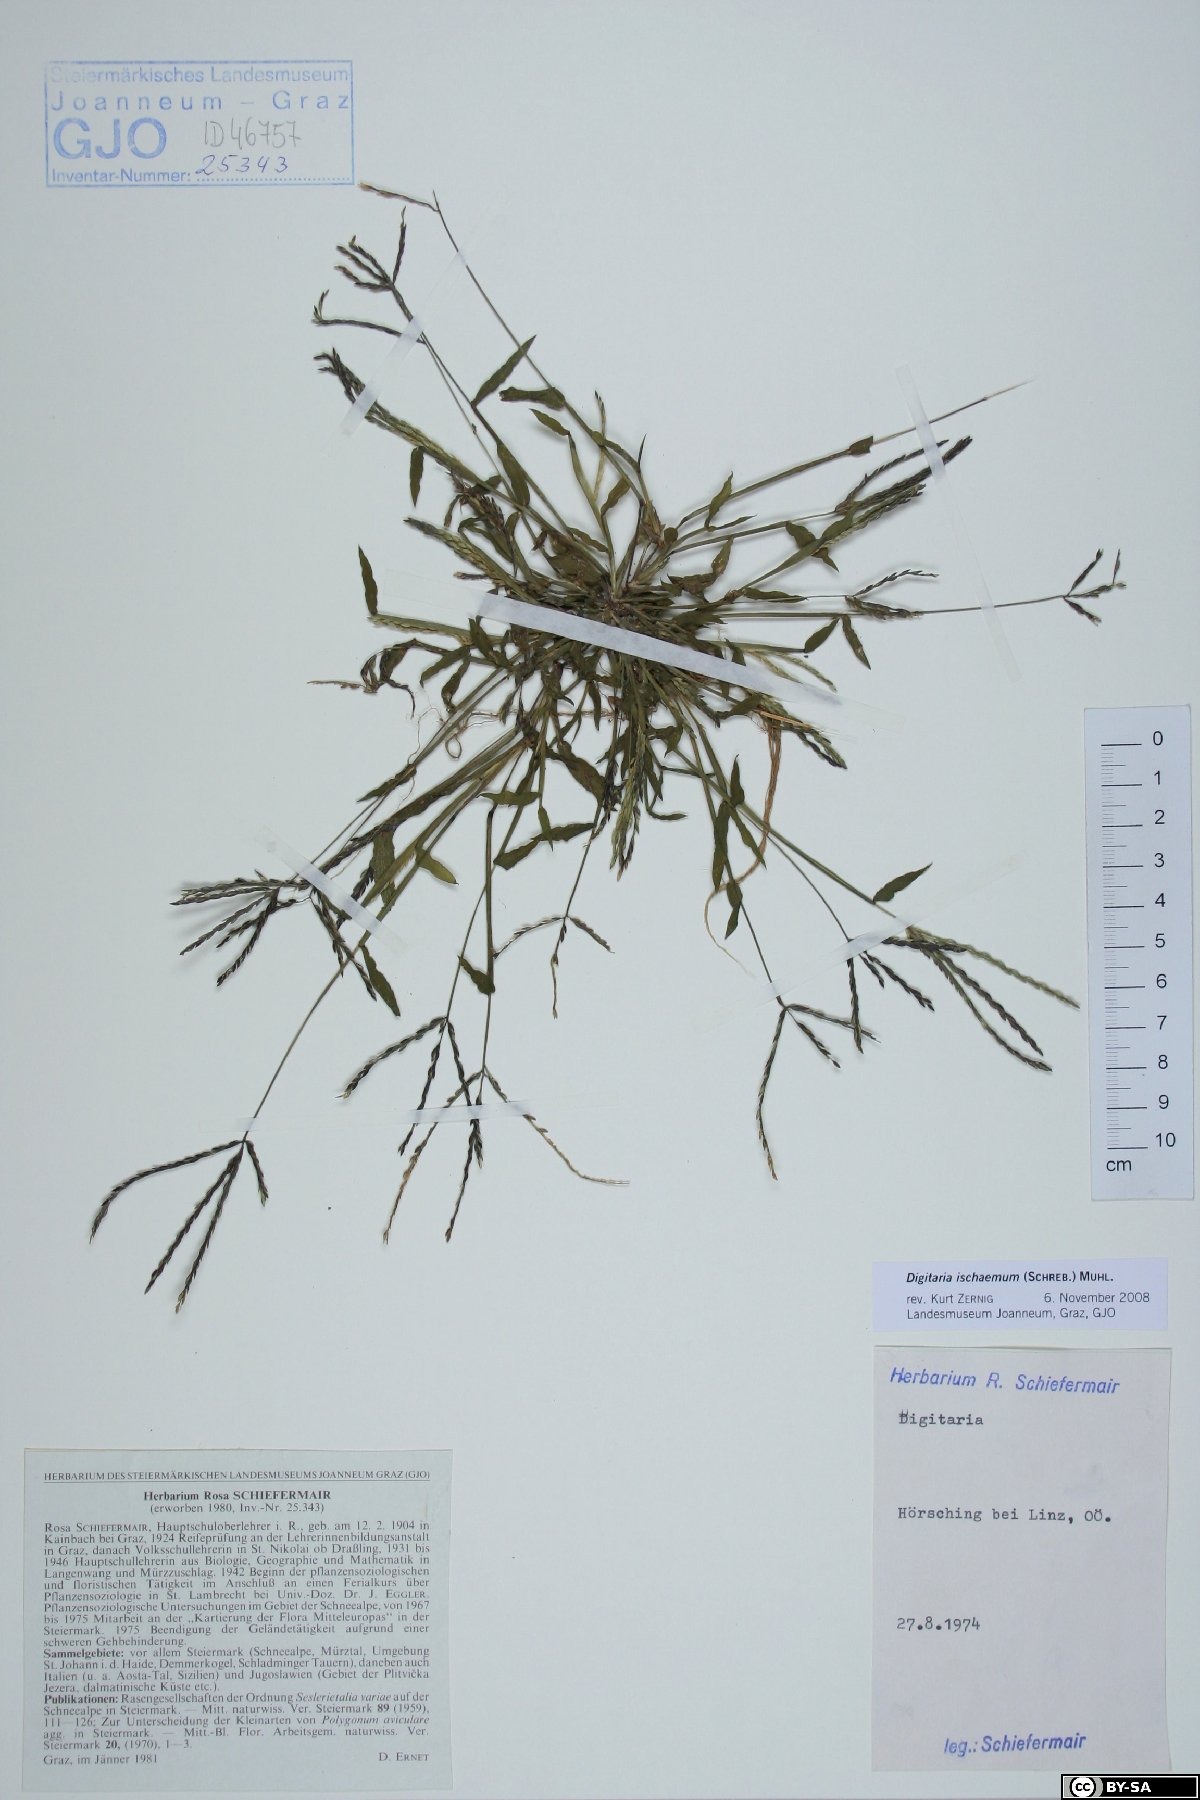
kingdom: Plantae
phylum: Tracheophyta
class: Liliopsida
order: Poales
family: Poaceae
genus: Digitaria
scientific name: Digitaria
